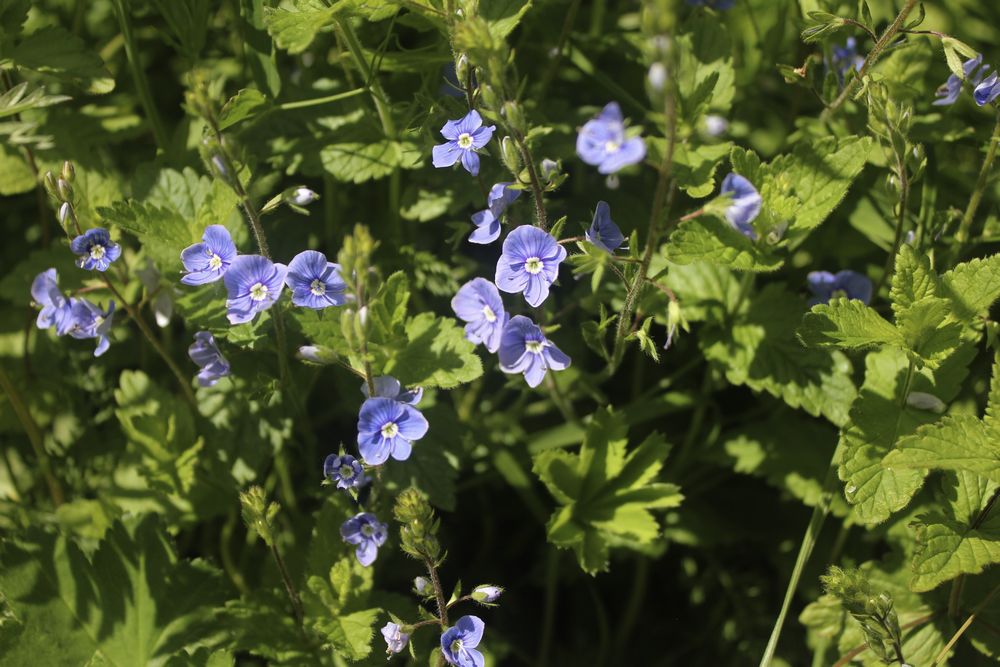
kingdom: Plantae
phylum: Tracheophyta
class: Magnoliopsida
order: Lamiales
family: Plantaginaceae
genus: Veronica
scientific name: Veronica chamaedrys
